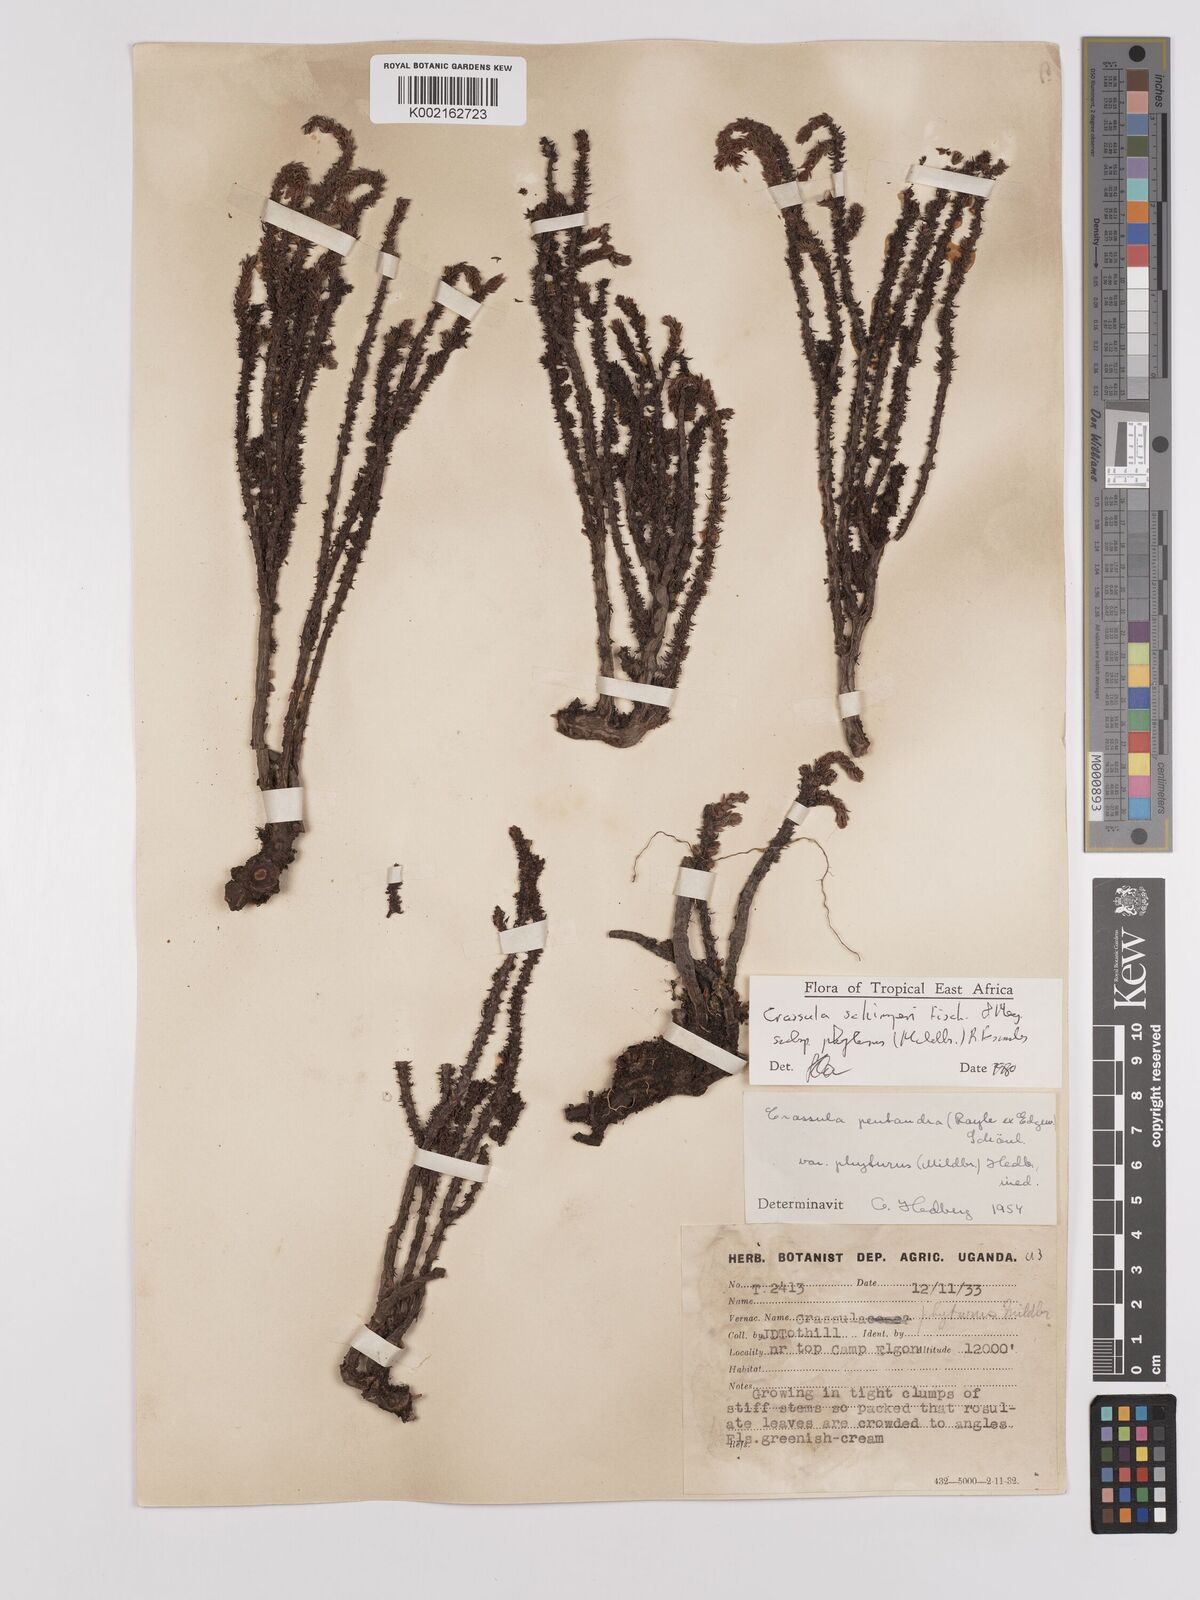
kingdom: Plantae
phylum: Tracheophyta
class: Magnoliopsida
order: Saxifragales
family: Crassulaceae
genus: Crassula
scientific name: Crassula schimperi
